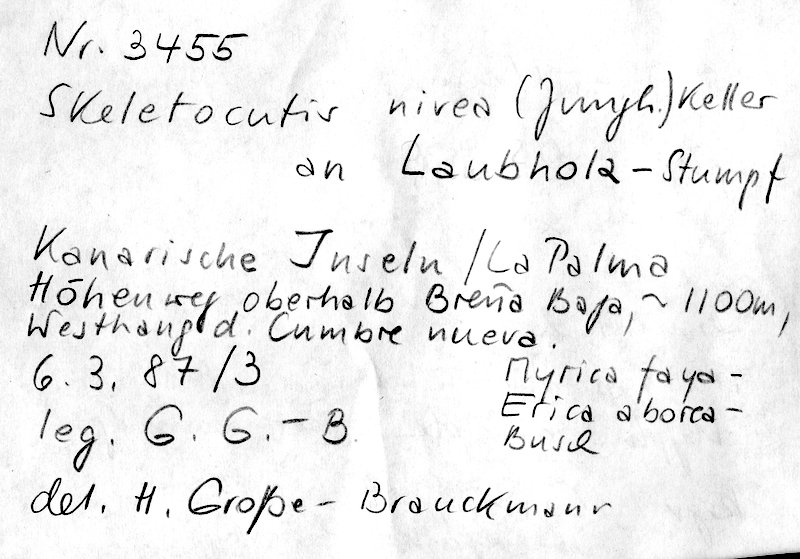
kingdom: Fungi
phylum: Basidiomycota
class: Agaricomycetes
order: Polyporales
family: Incrustoporiaceae
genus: Skeletocutis
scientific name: Skeletocutis nivea
